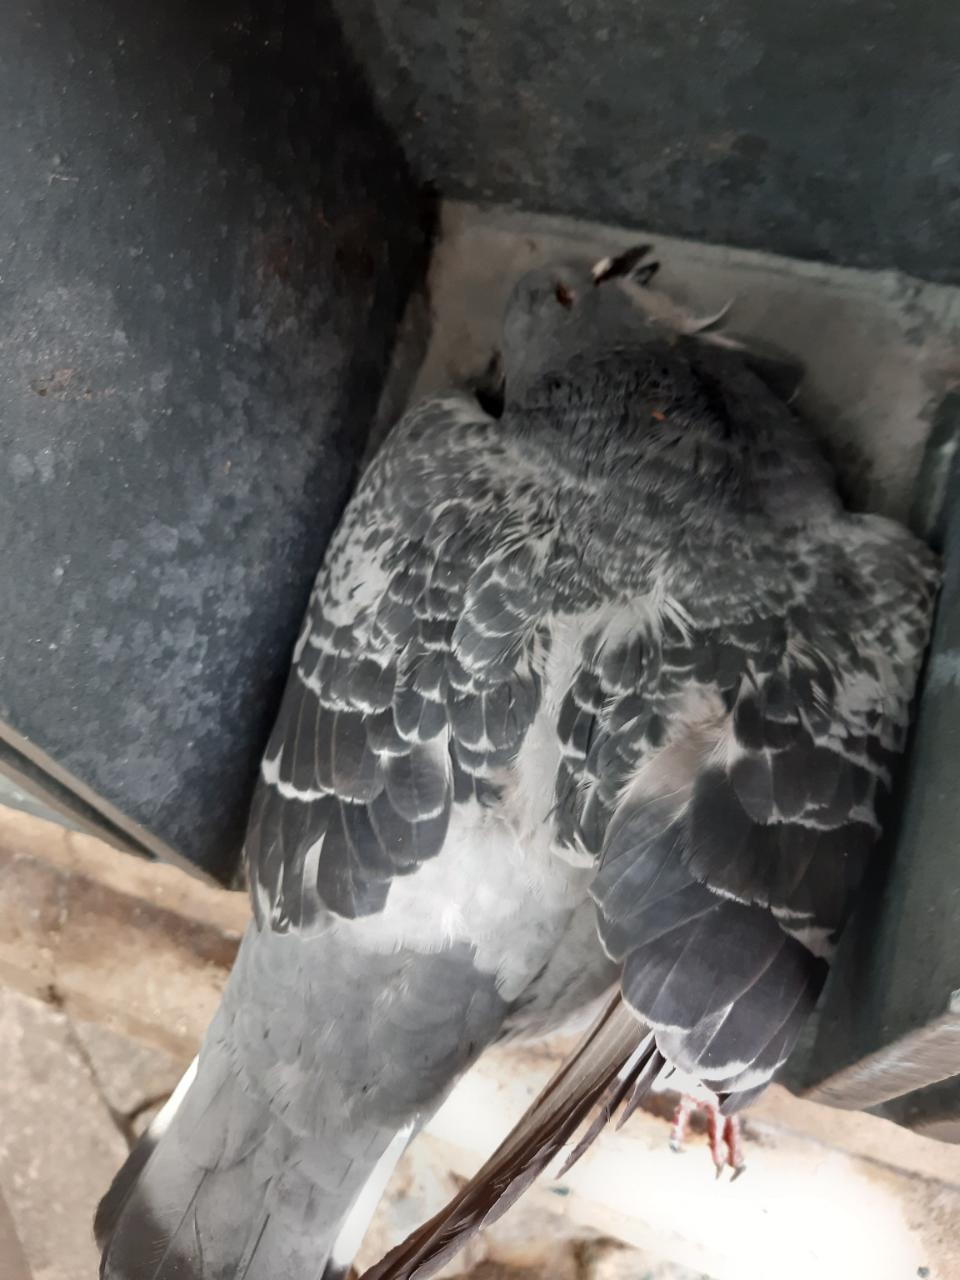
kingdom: Animalia
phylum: Chordata
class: Aves
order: Columbiformes
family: Columbidae
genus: Columba
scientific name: Columba livia
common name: Rock pigeon
